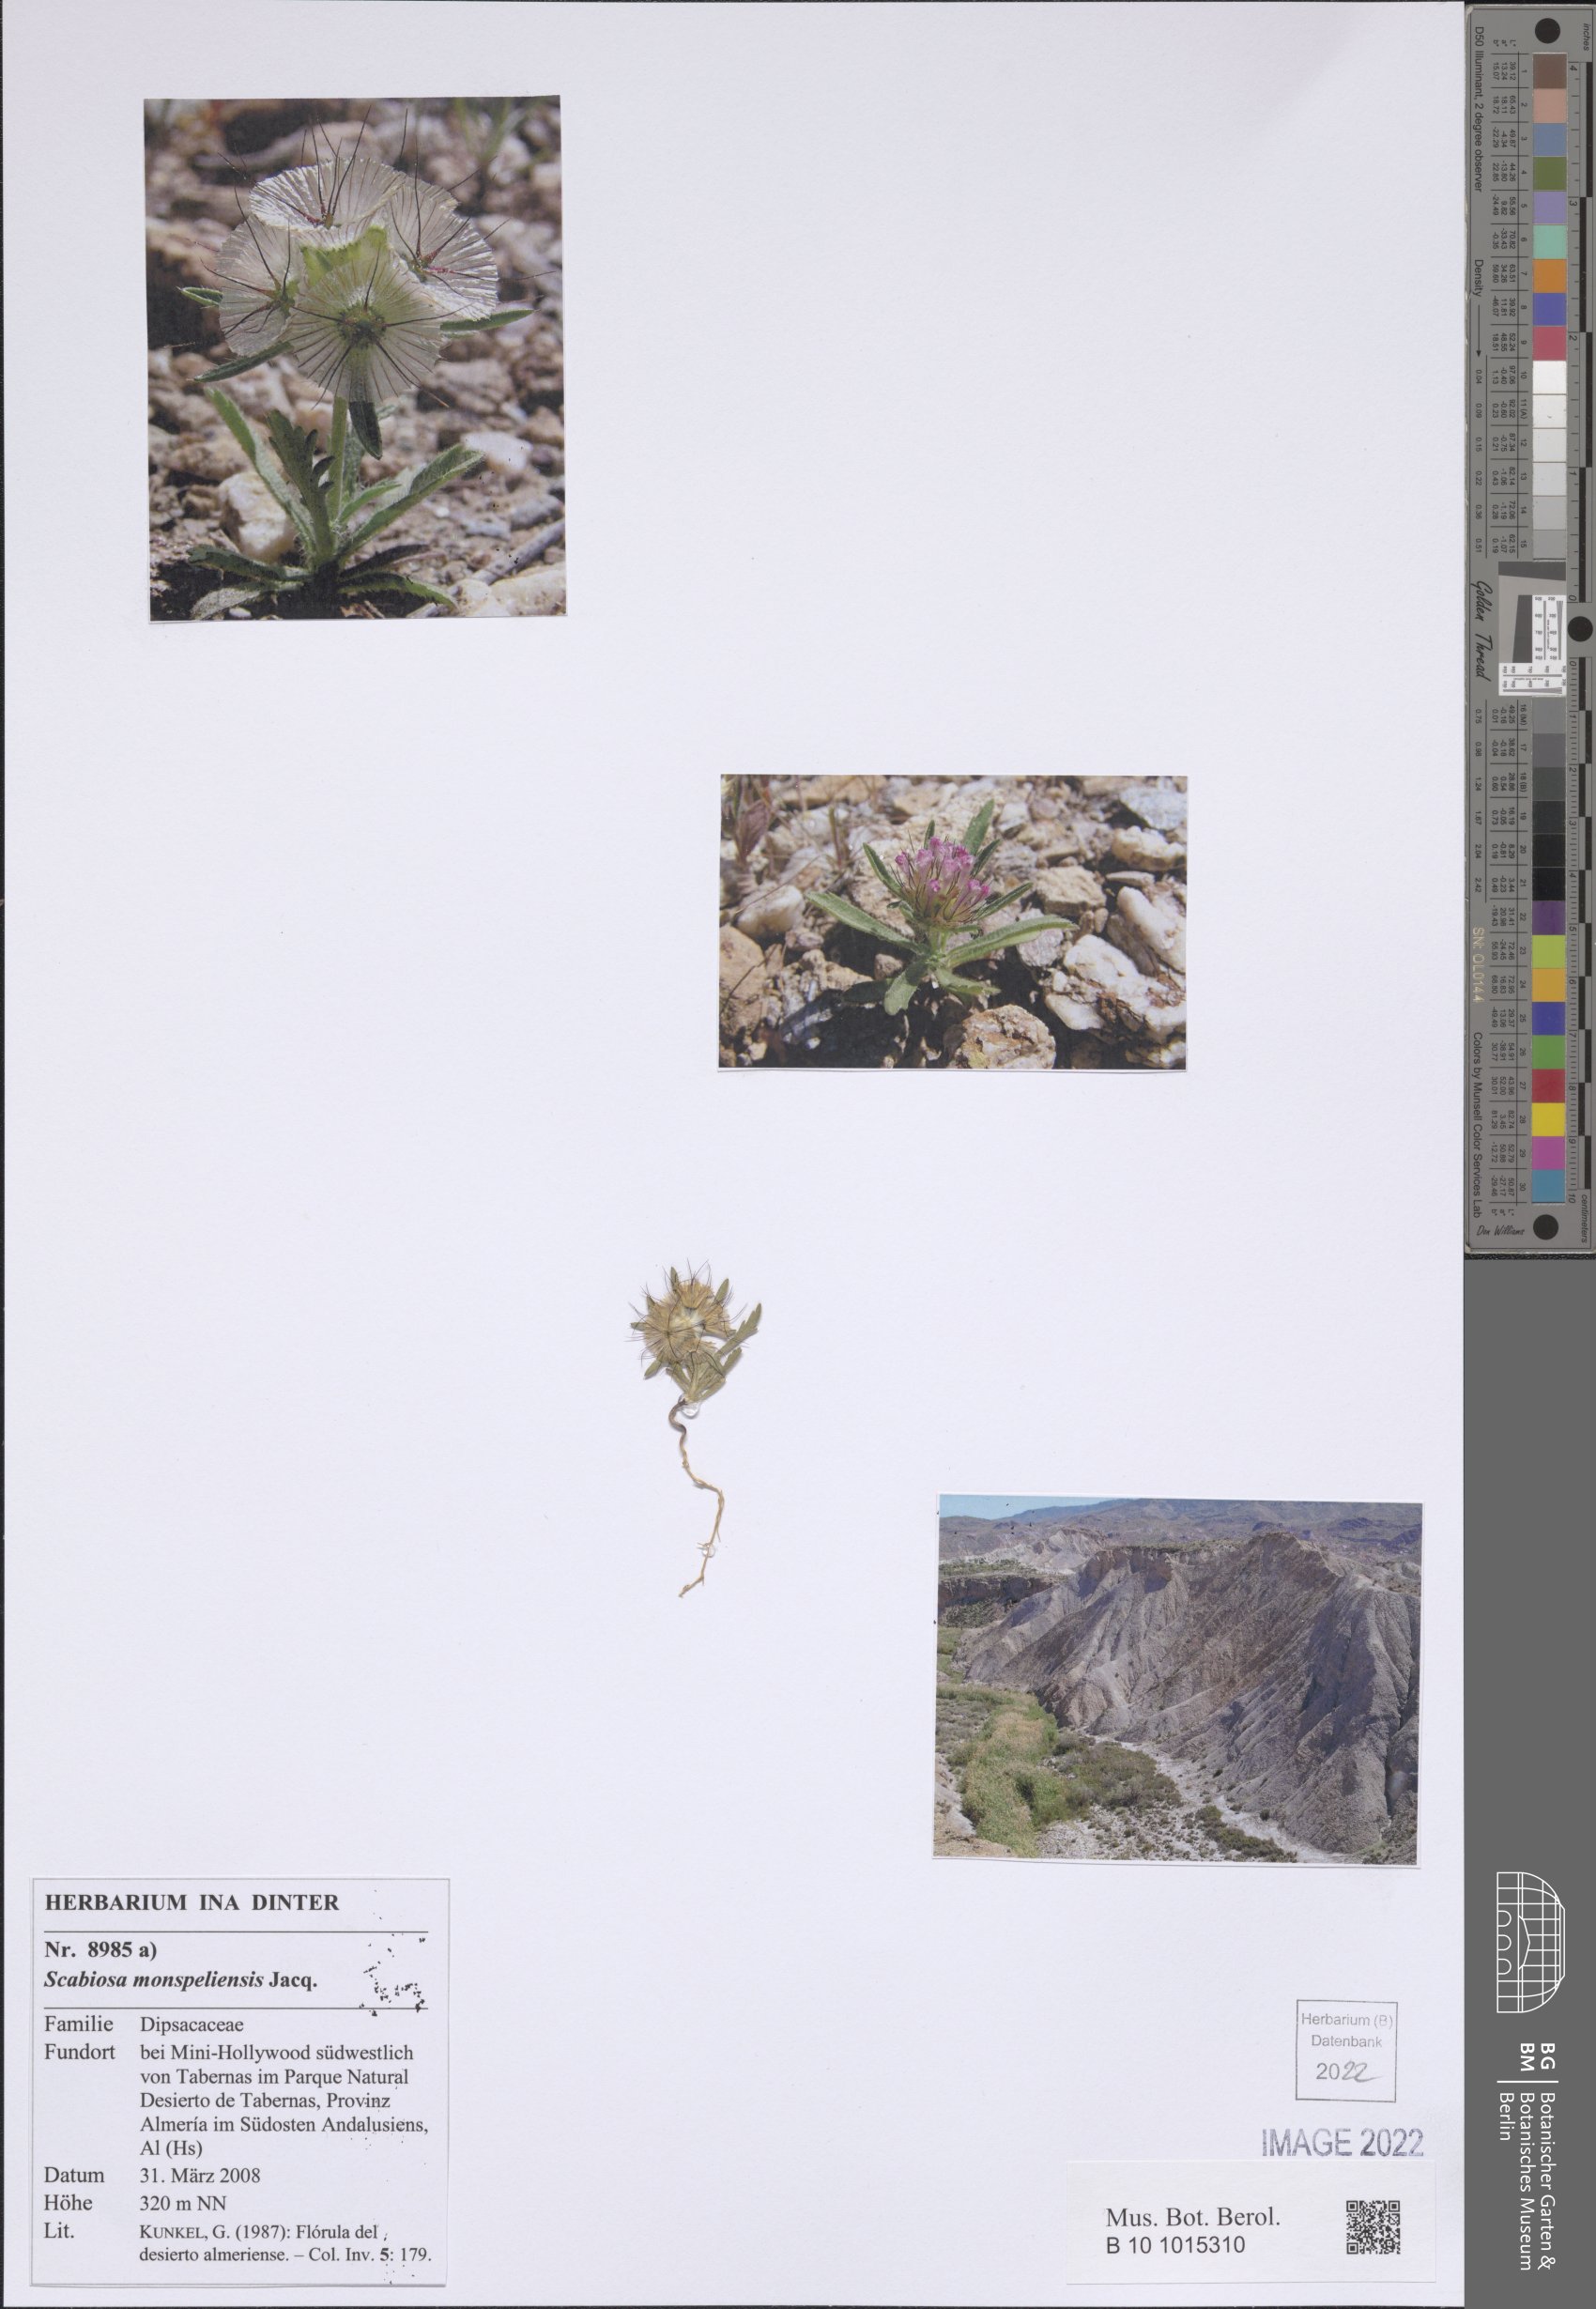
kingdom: Plantae
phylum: Tracheophyta
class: Magnoliopsida
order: Dipsacales
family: Caprifoliaceae
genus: Lomelosia
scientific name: Lomelosia stellata
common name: Teasel
